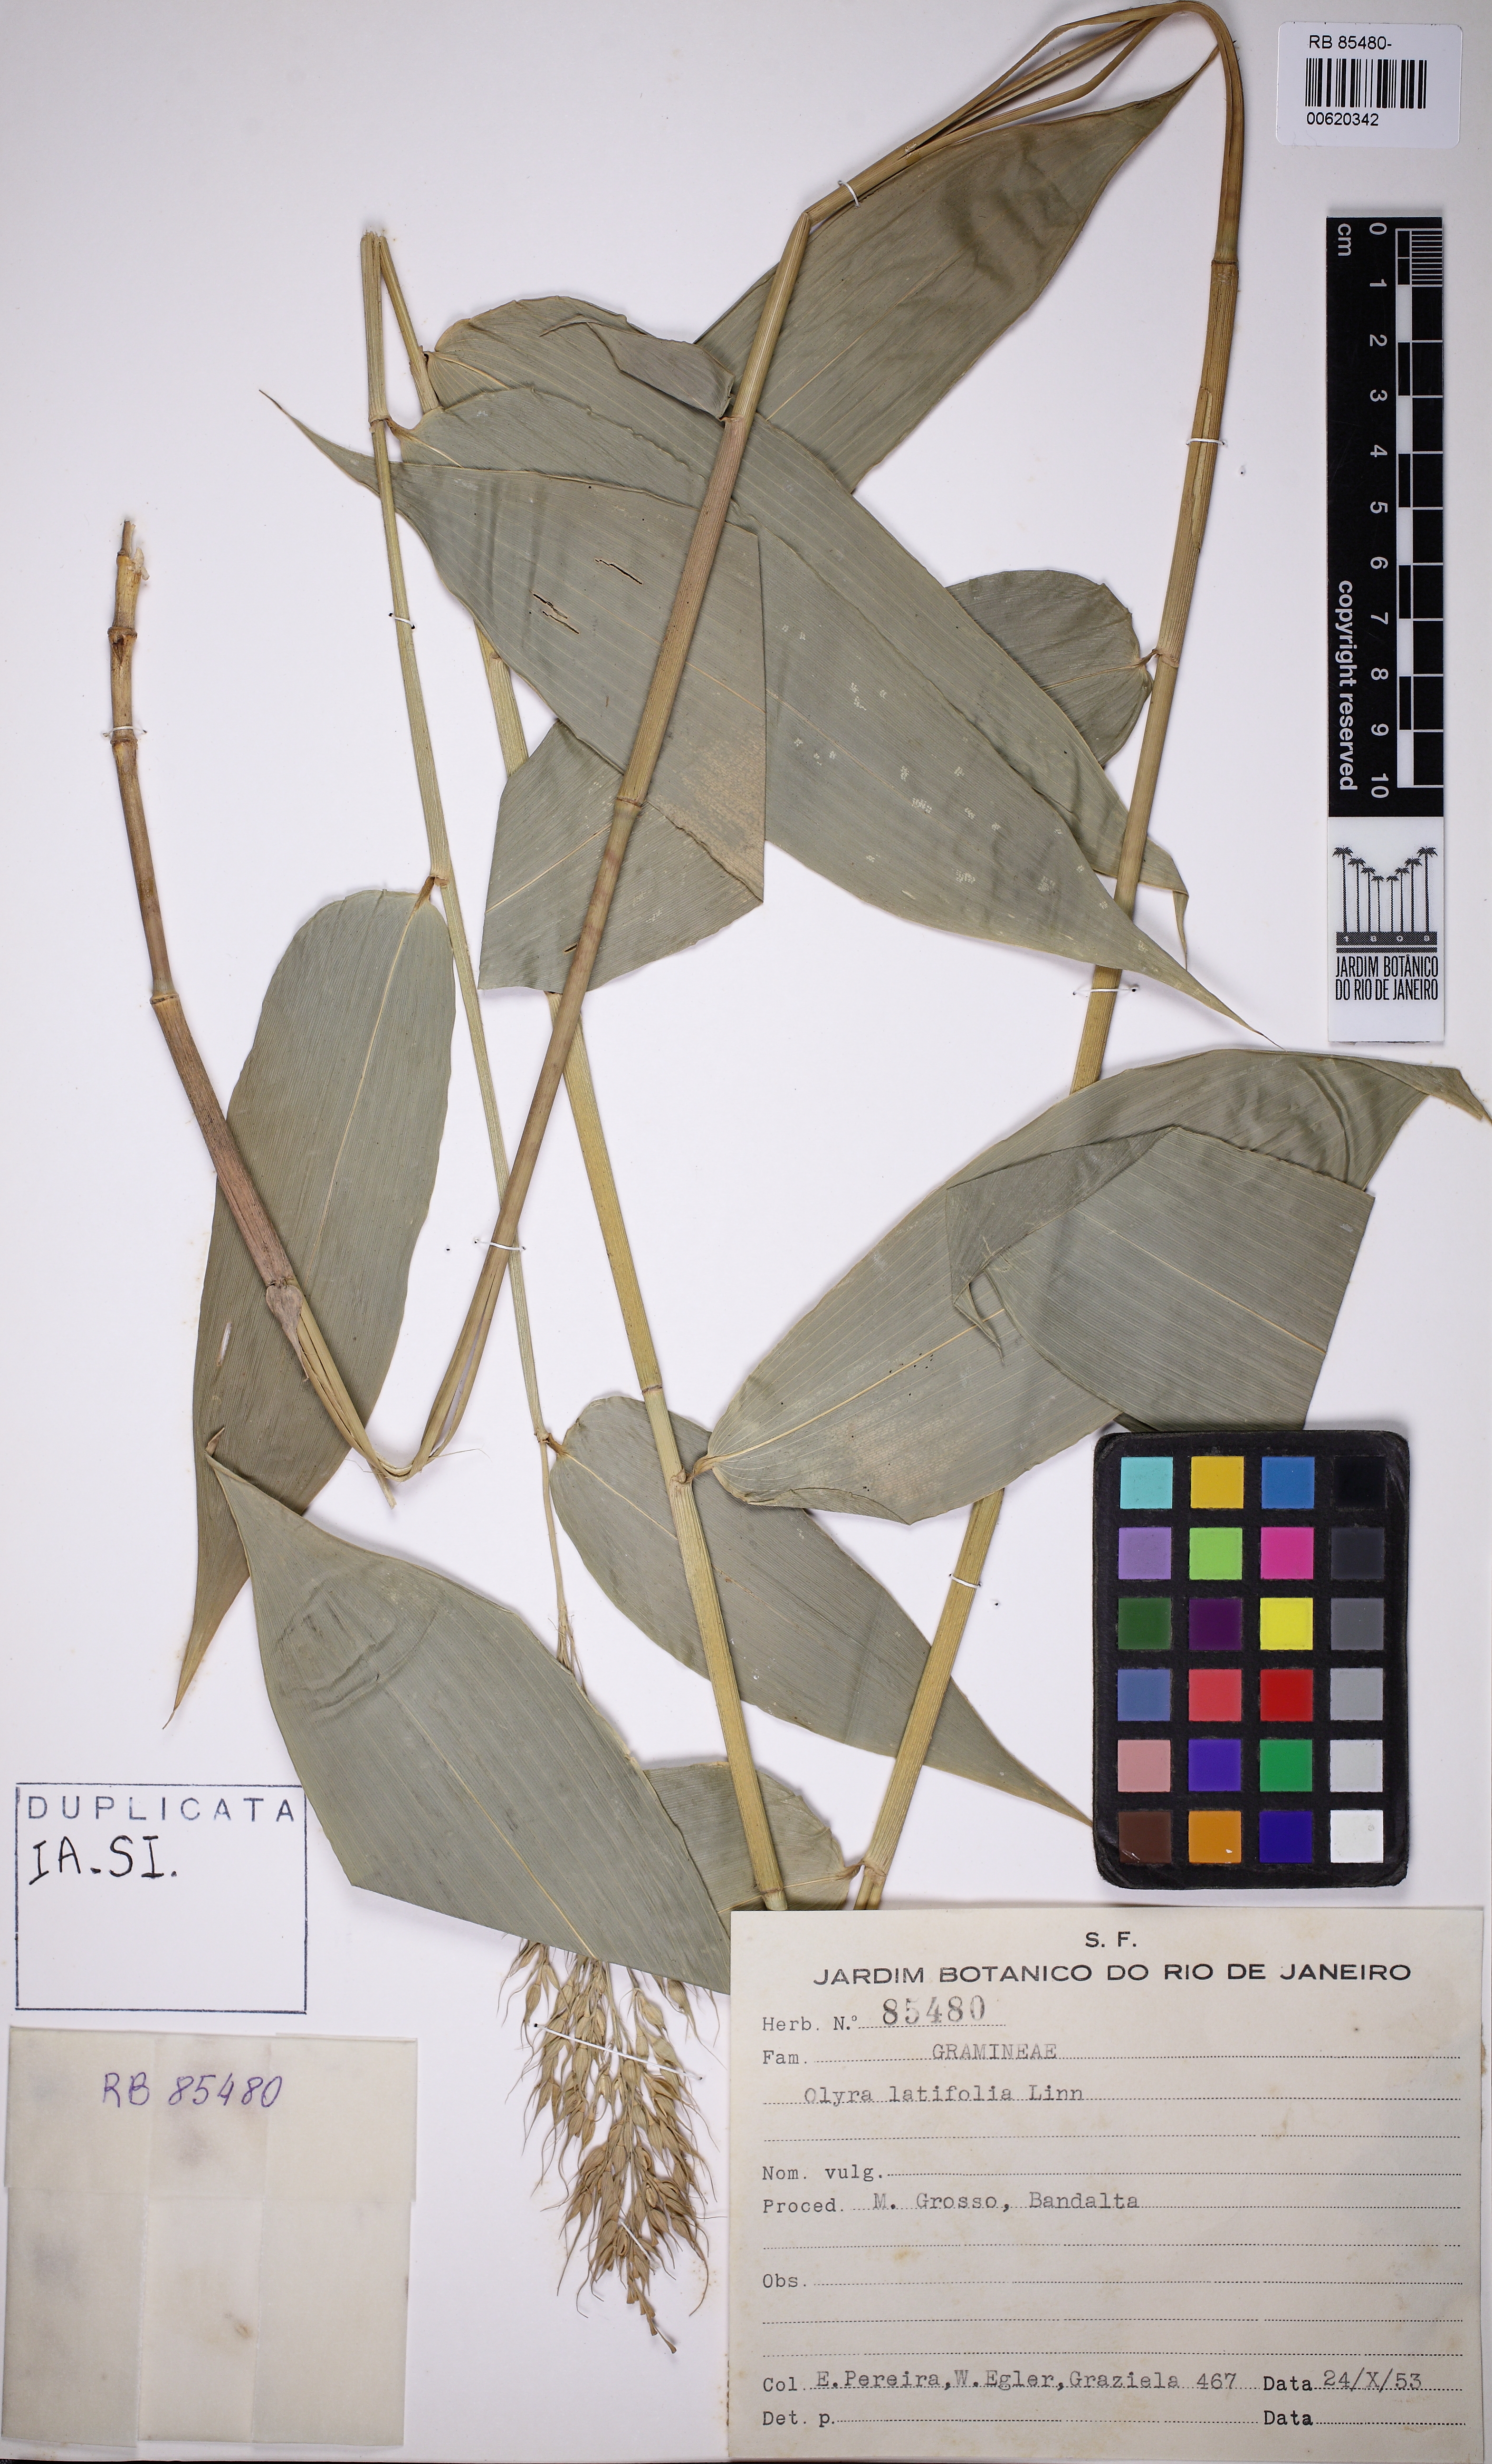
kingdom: Plantae
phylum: Tracheophyta
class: Liliopsida
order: Poales
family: Poaceae
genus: Olyra
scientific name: Olyra latifolia
